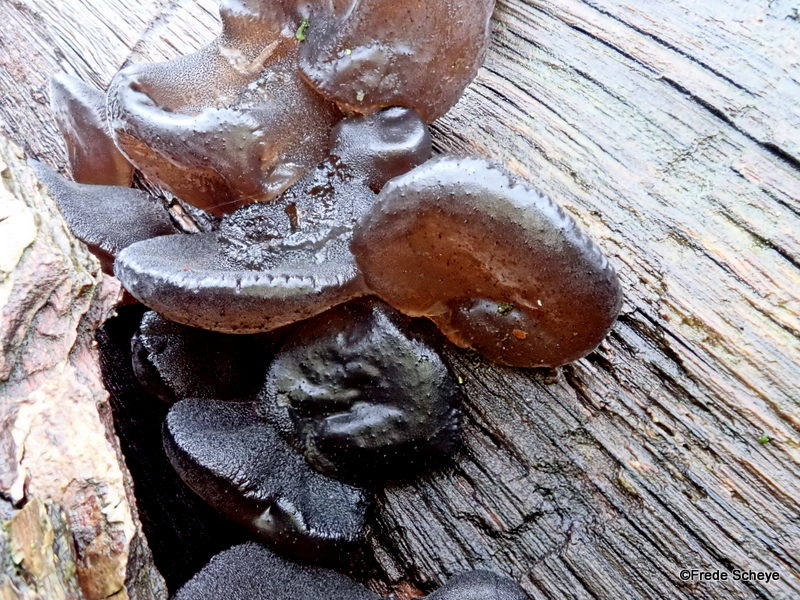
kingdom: Fungi
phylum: Basidiomycota
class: Agaricomycetes
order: Auriculariales
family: Auriculariaceae
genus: Exidia
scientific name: Exidia glandulosa
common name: ege-bævretop
